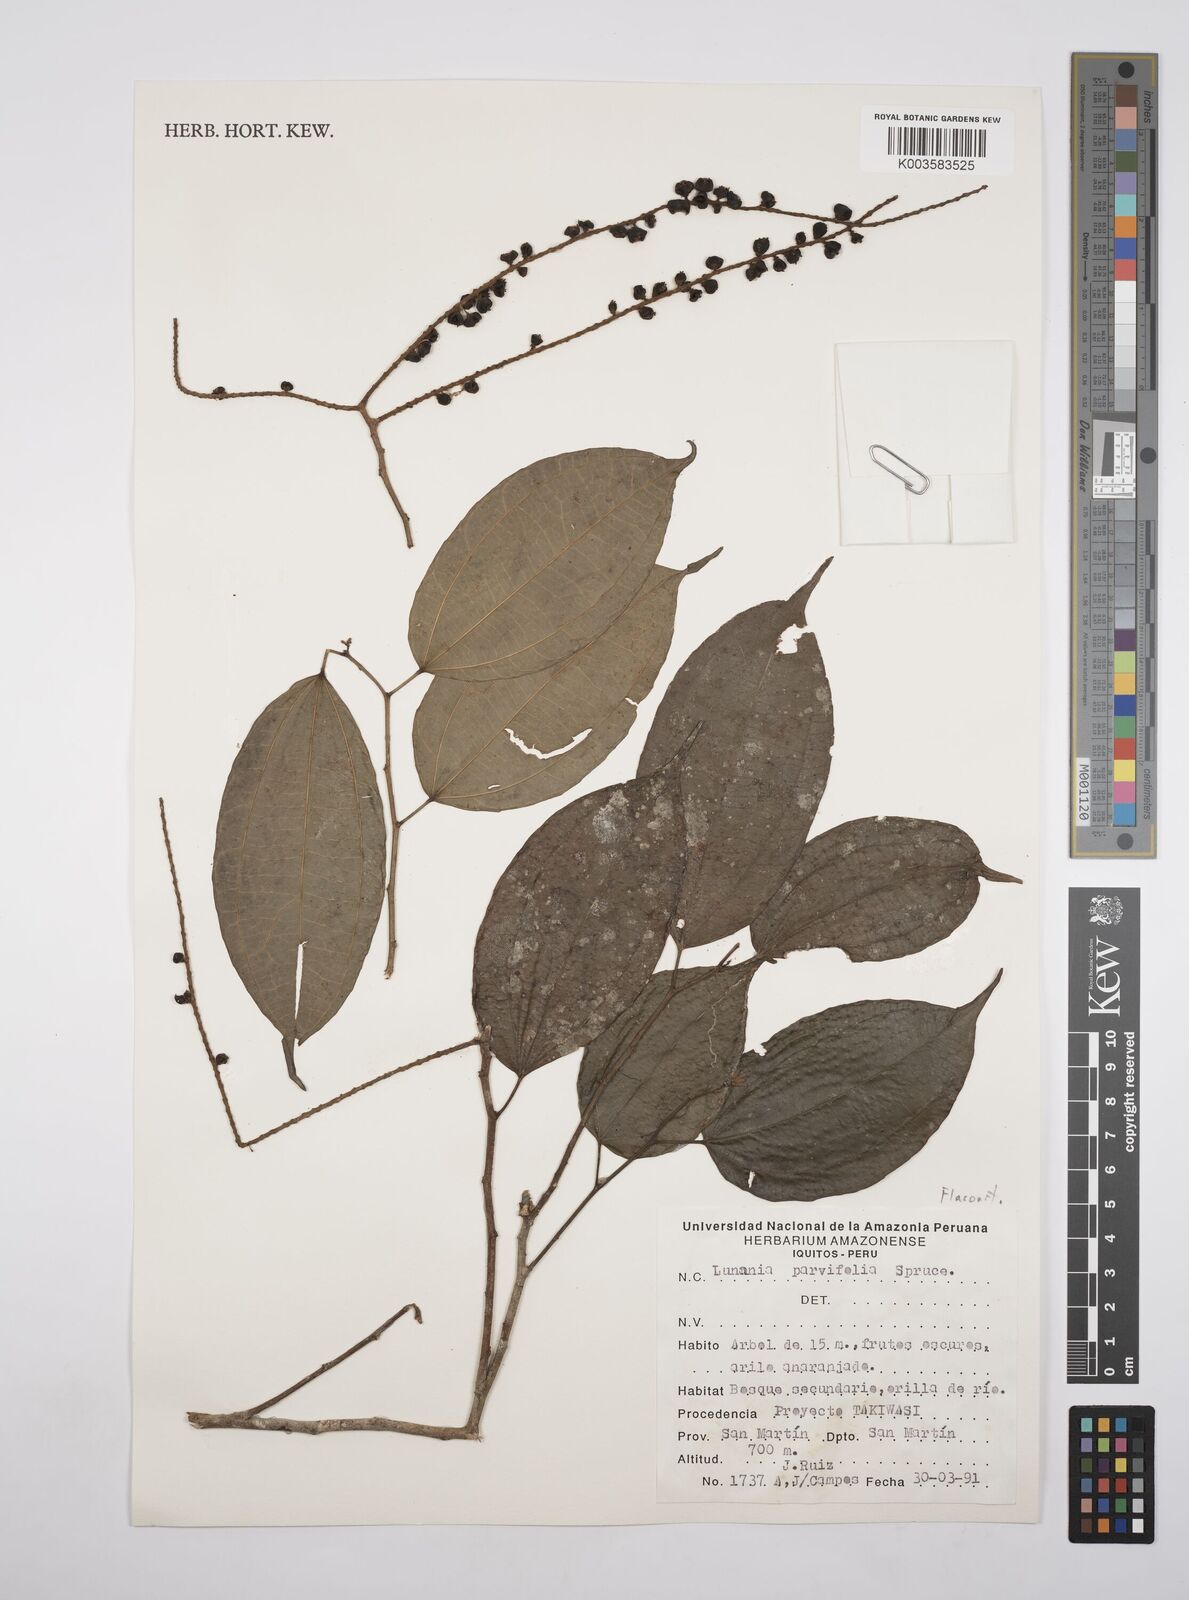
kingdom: Plantae
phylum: Tracheophyta
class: Magnoliopsida
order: Malpighiales
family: Salicaceae
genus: Lunania
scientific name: Lunania parviflora
